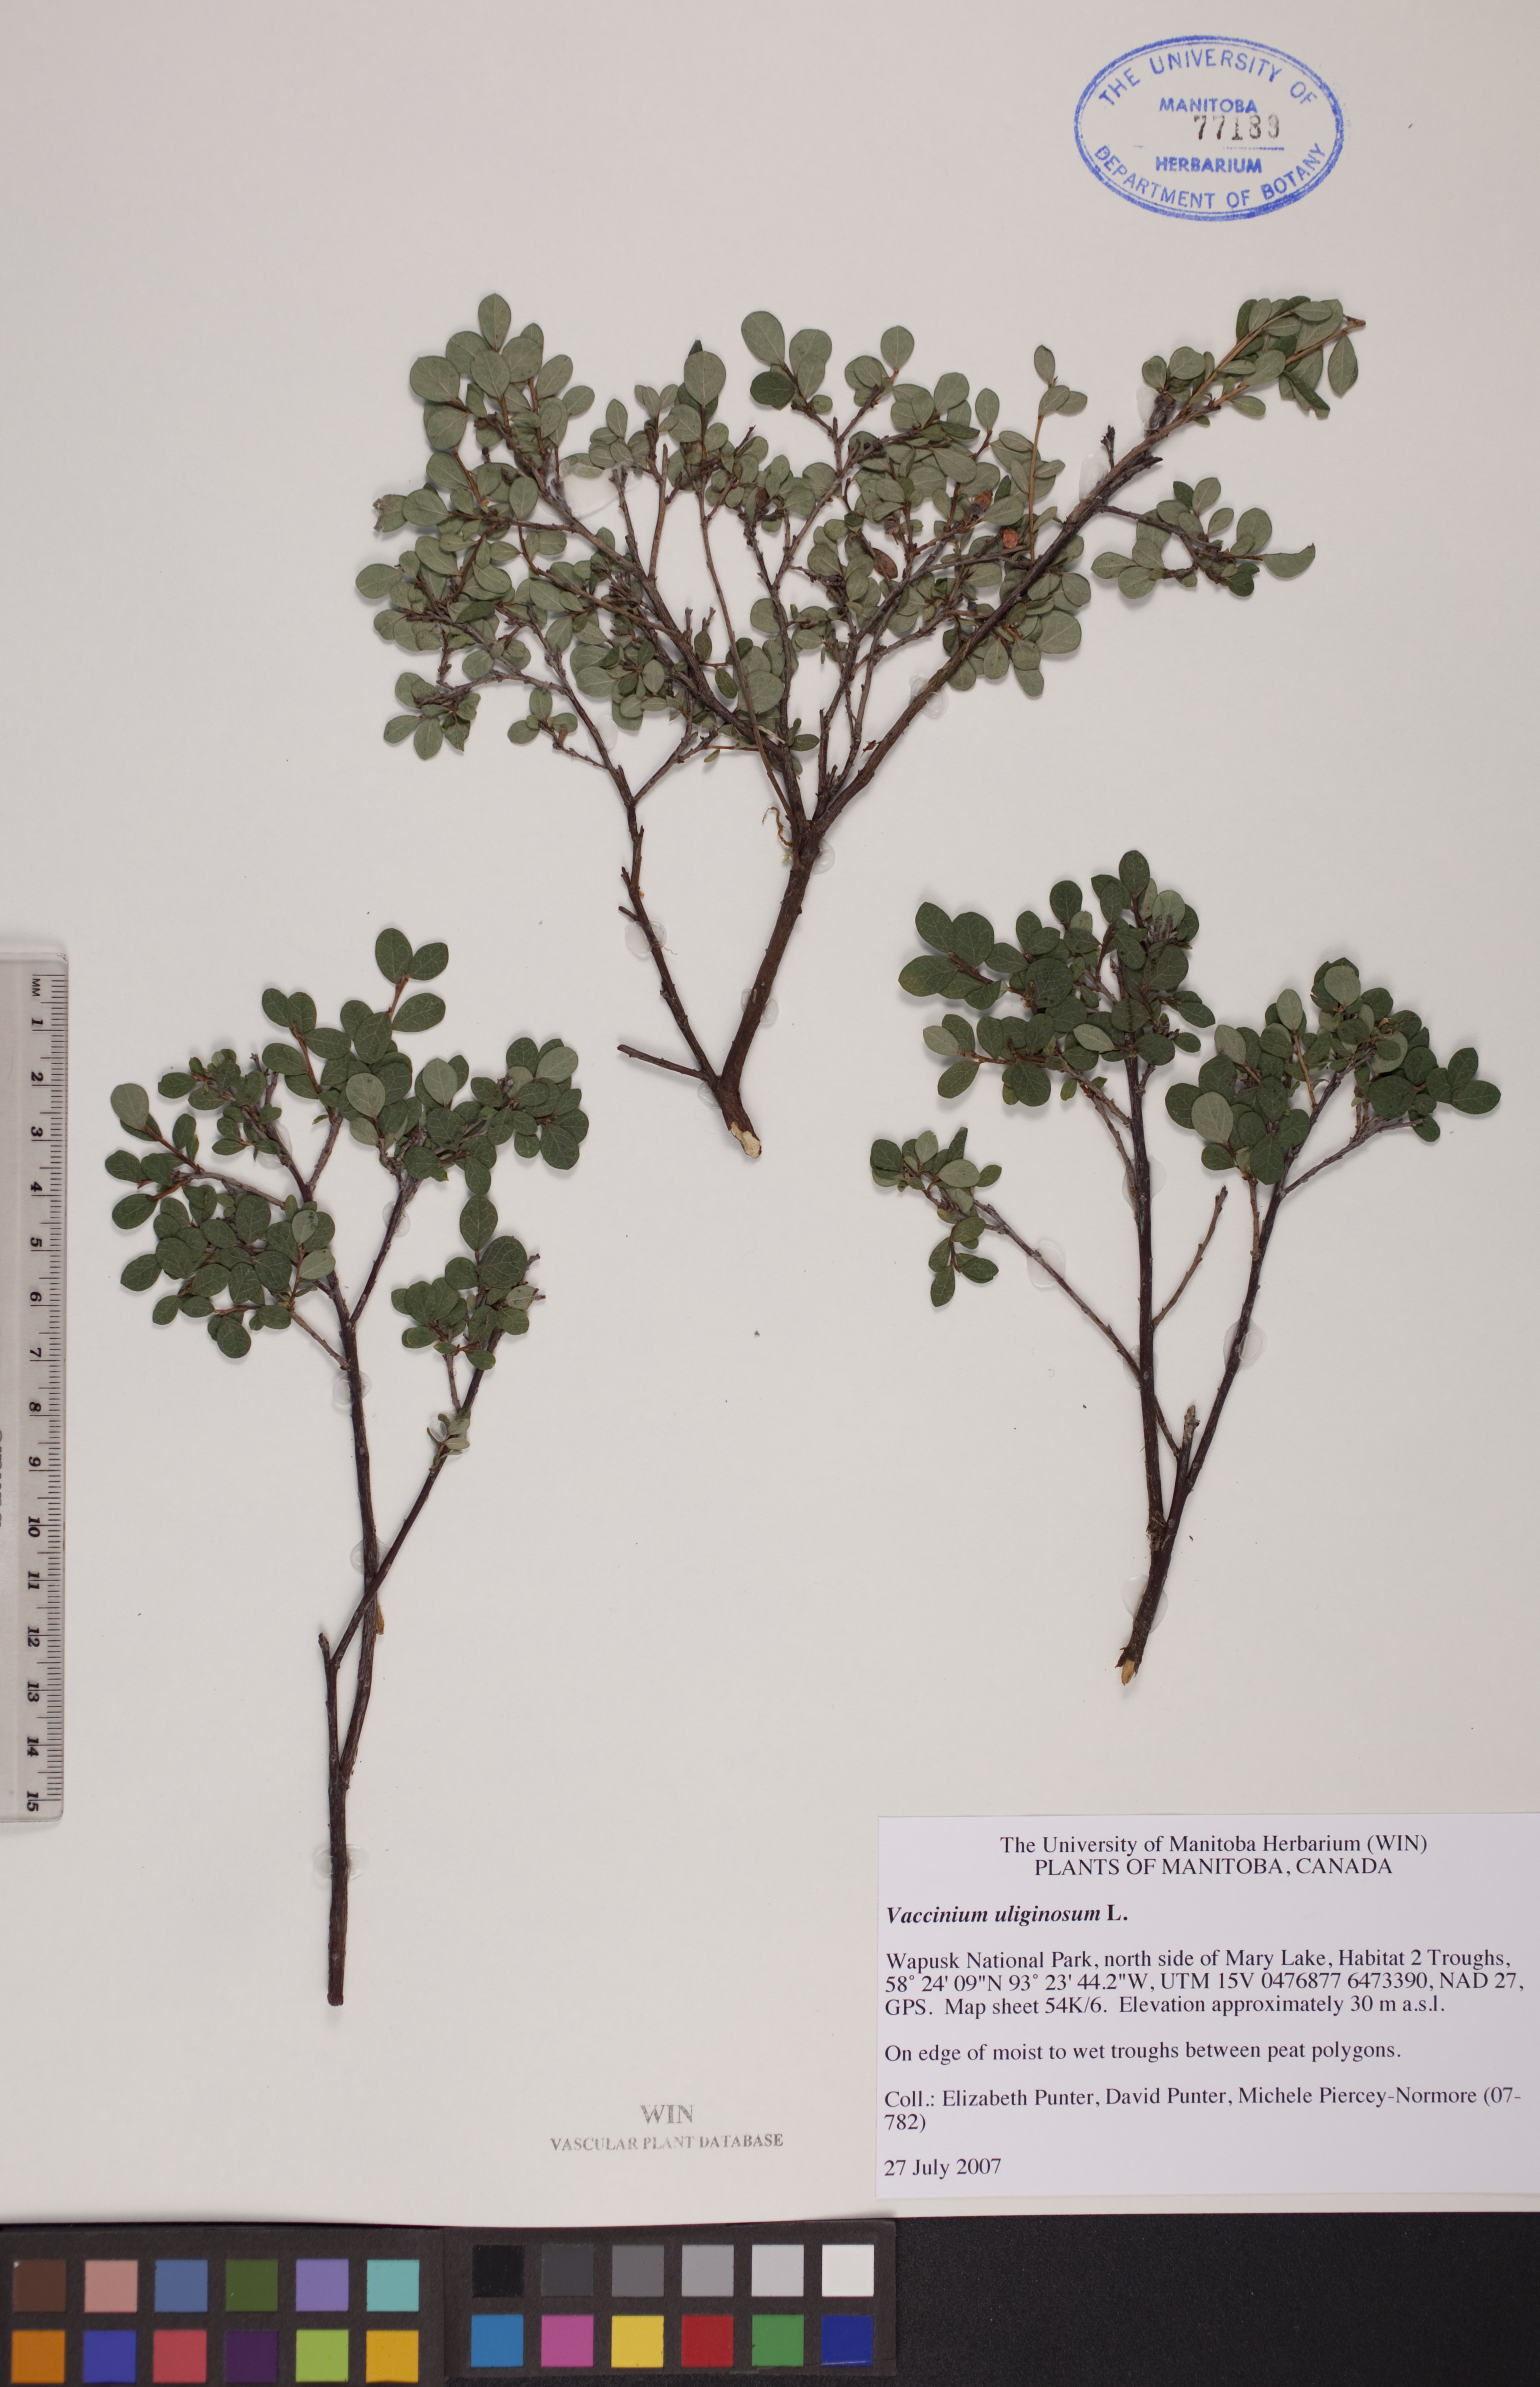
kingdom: Plantae
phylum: Tracheophyta
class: Magnoliopsida
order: Ericales
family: Ericaceae
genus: Vaccinium
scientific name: Vaccinium uliginosum
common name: Bog bilberry
